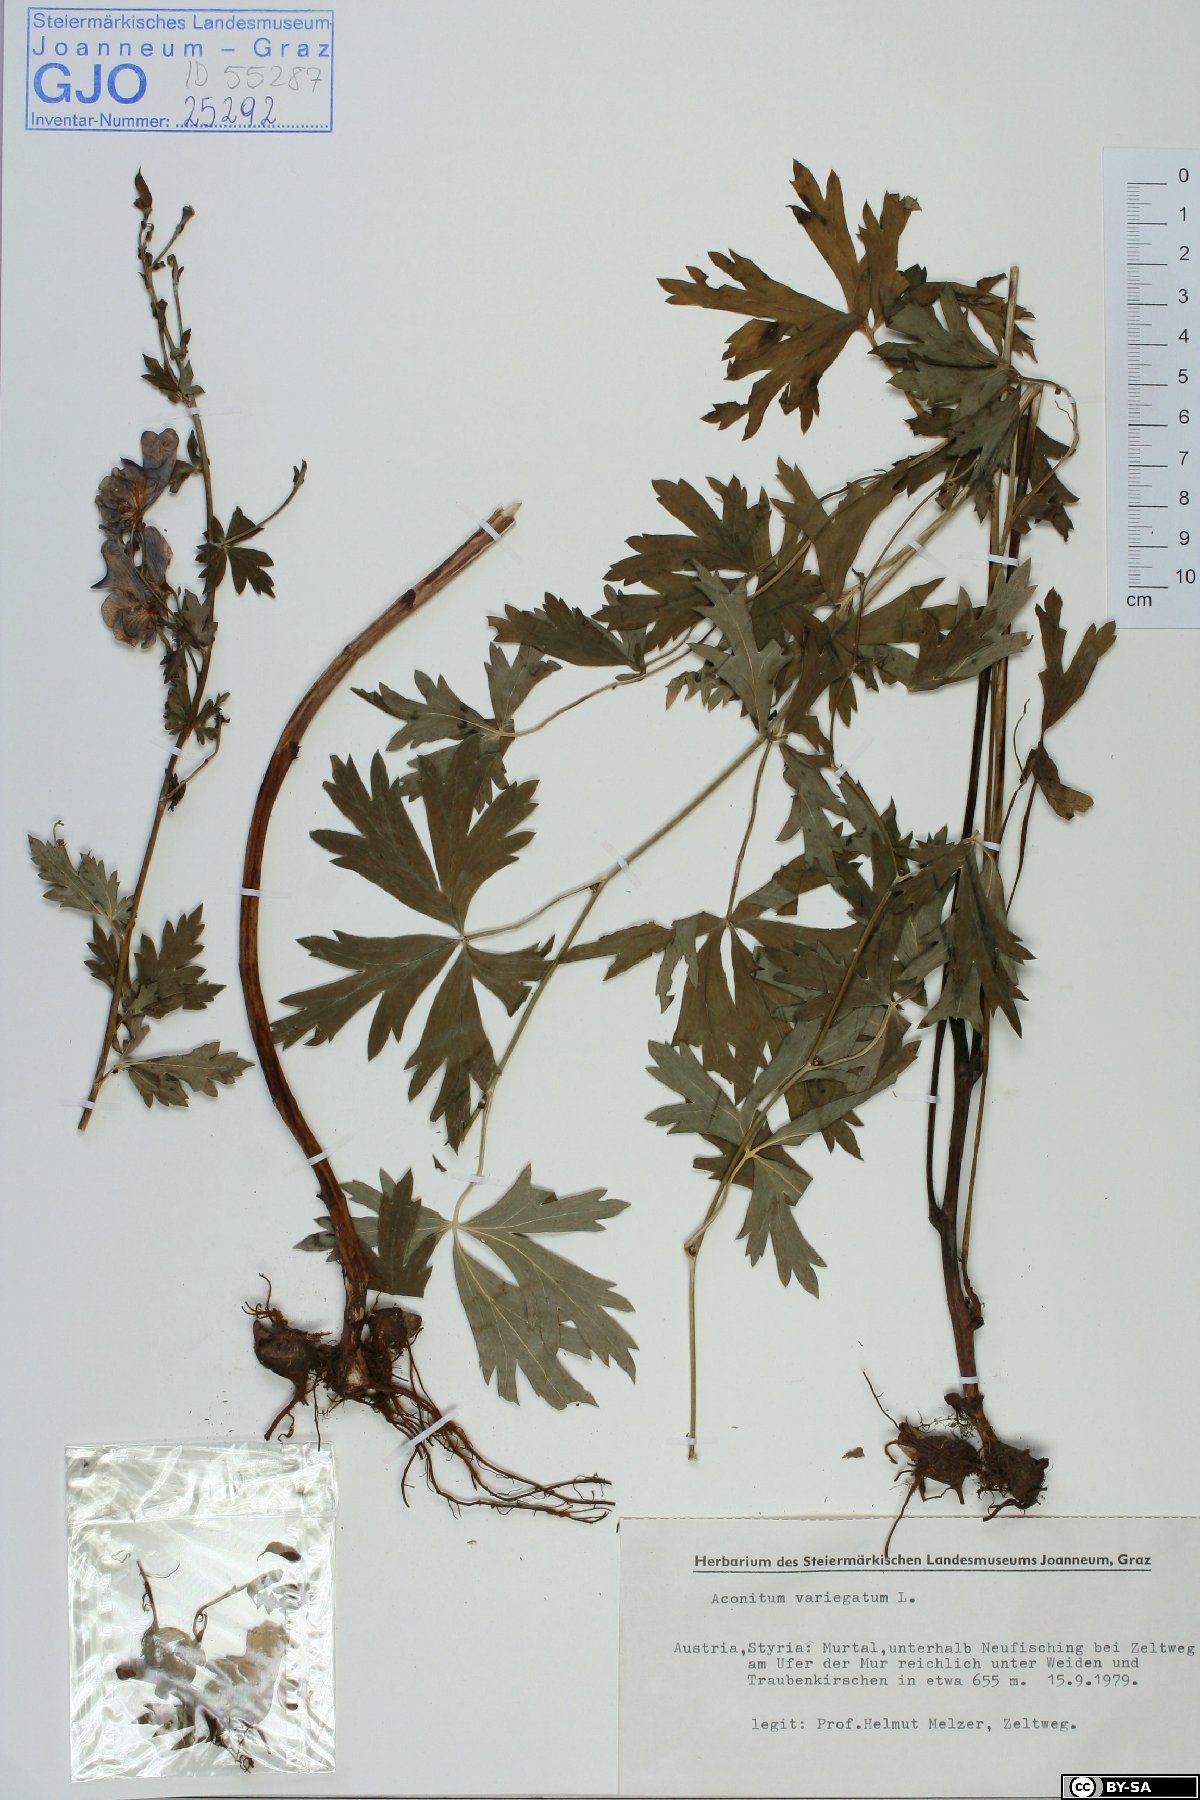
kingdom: Plantae
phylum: Tracheophyta
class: Magnoliopsida
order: Ranunculales
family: Ranunculaceae
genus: Aconitum
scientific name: Aconitum variegatum
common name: Manchurian monkshood
